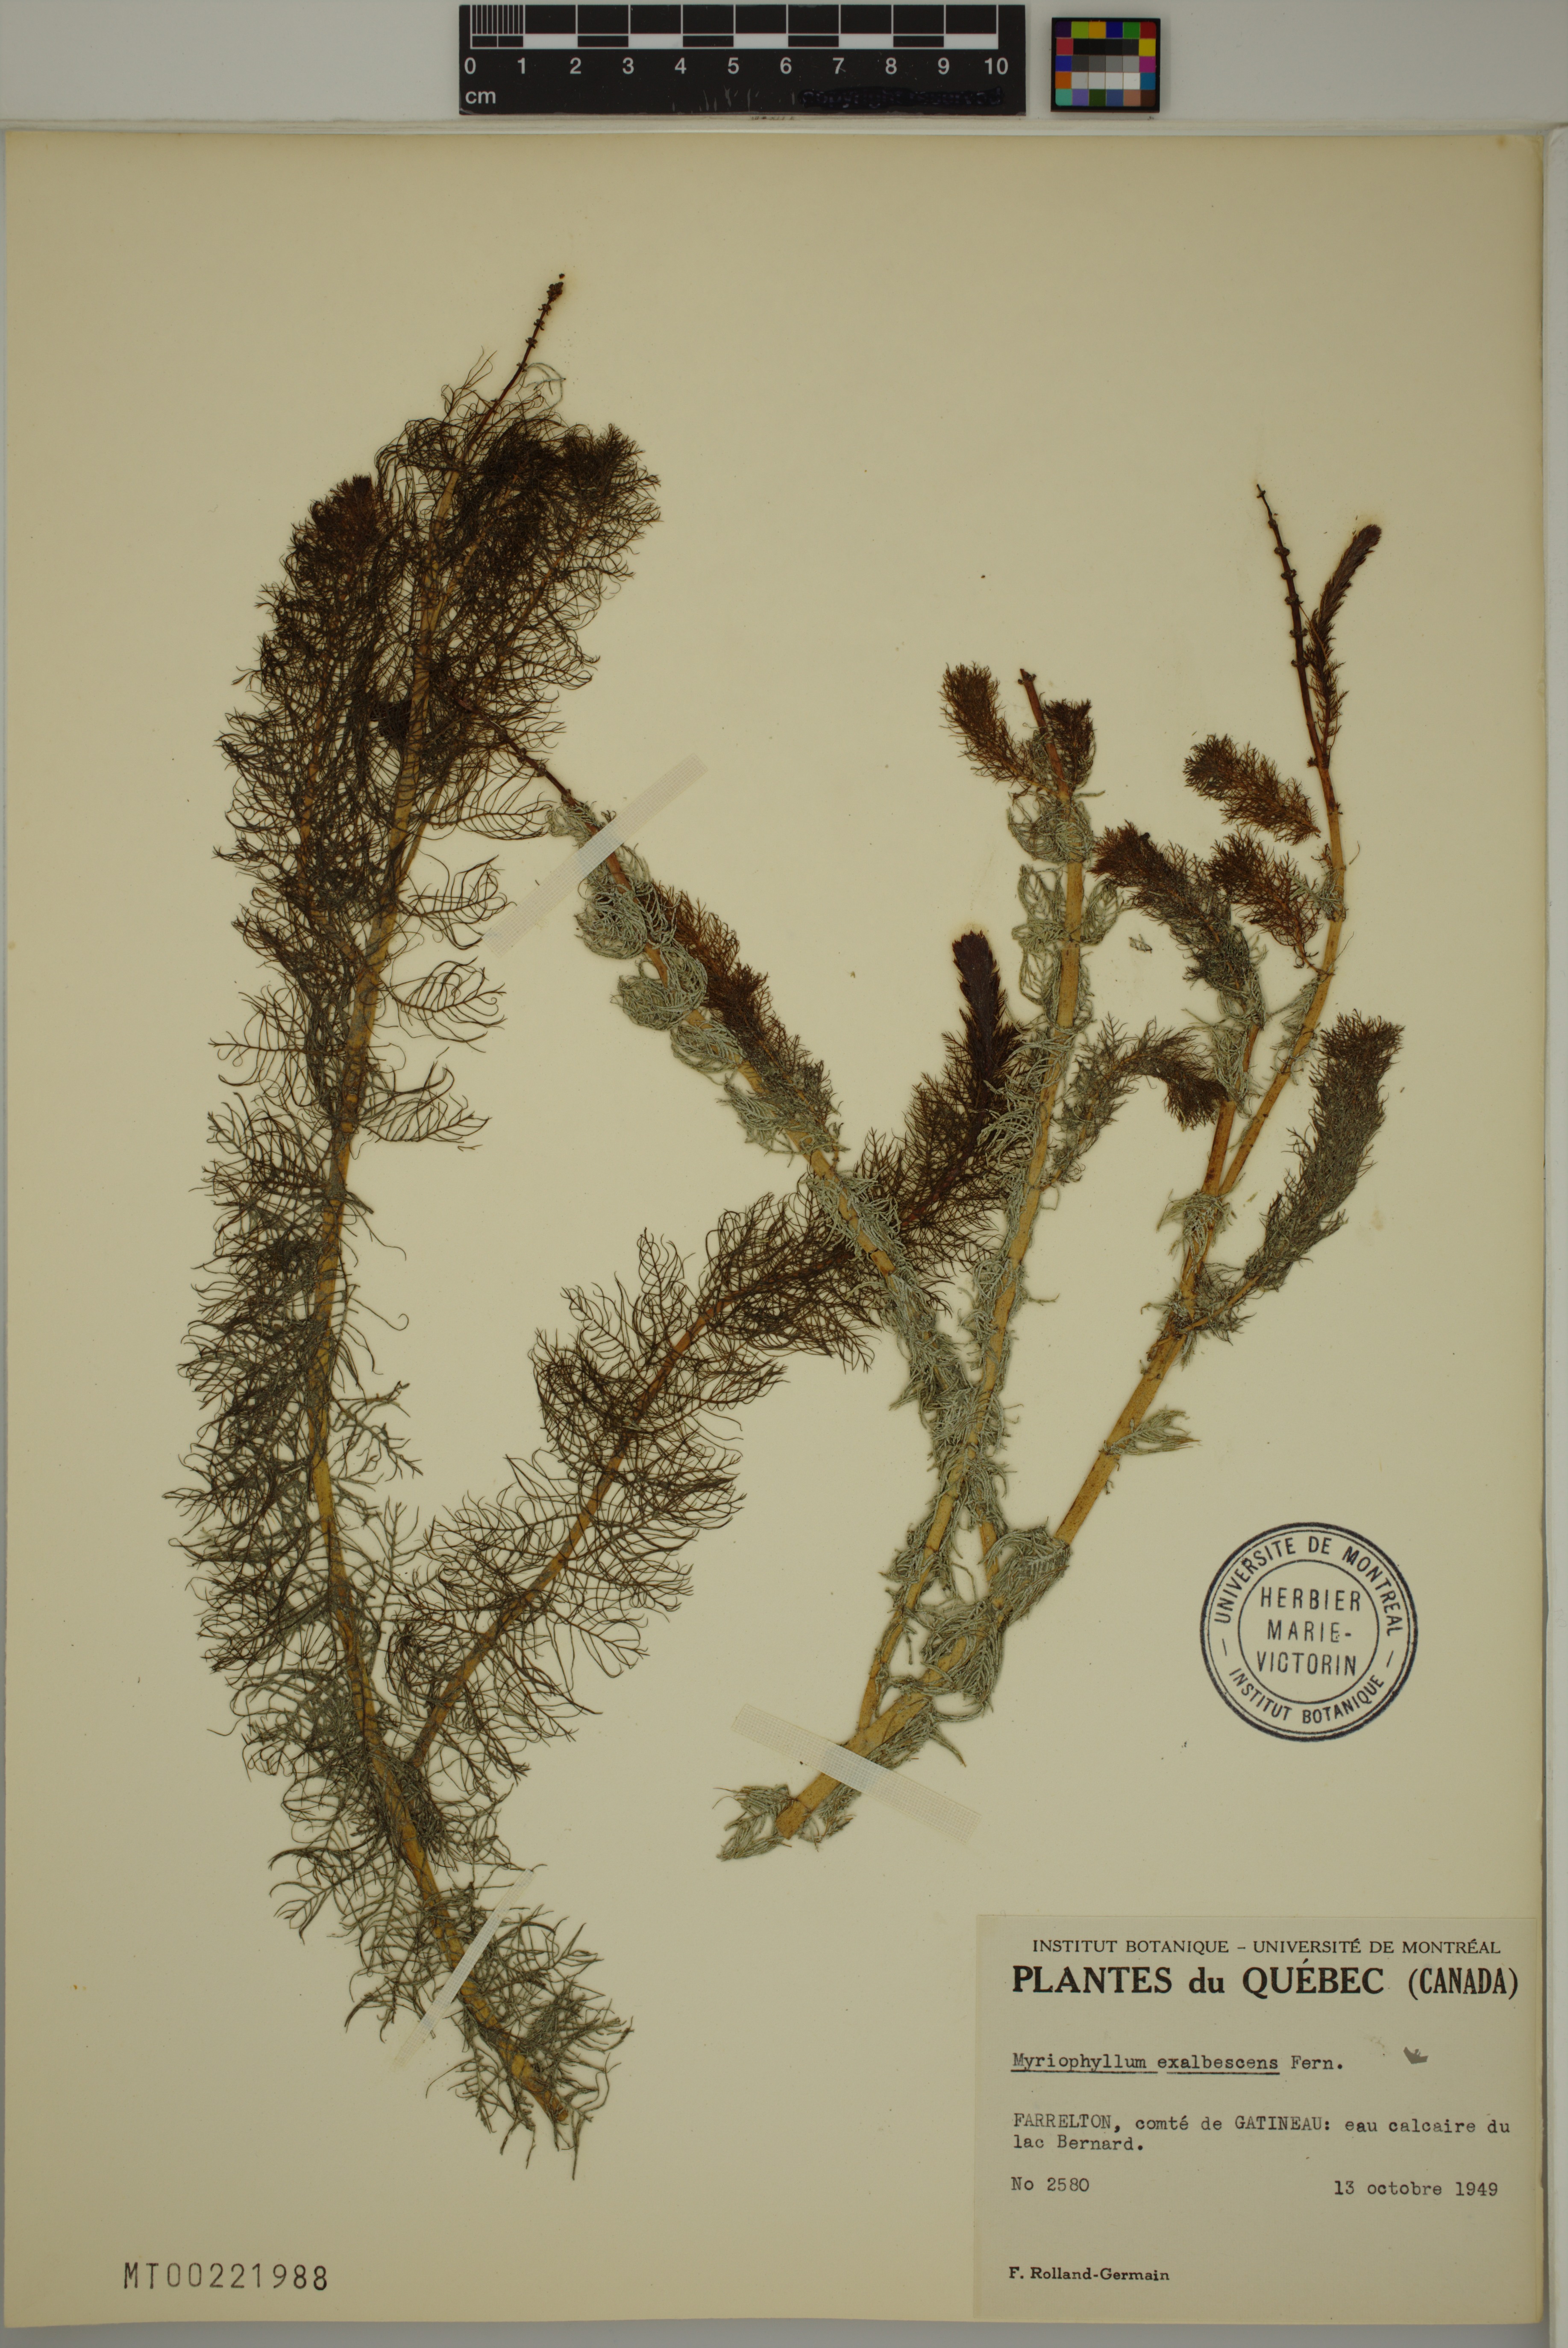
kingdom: Plantae
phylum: Tracheophyta
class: Magnoliopsida
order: Saxifragales
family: Haloragaceae
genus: Myriophyllum
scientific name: Myriophyllum sibiricum
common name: Siberian water-milfoil
